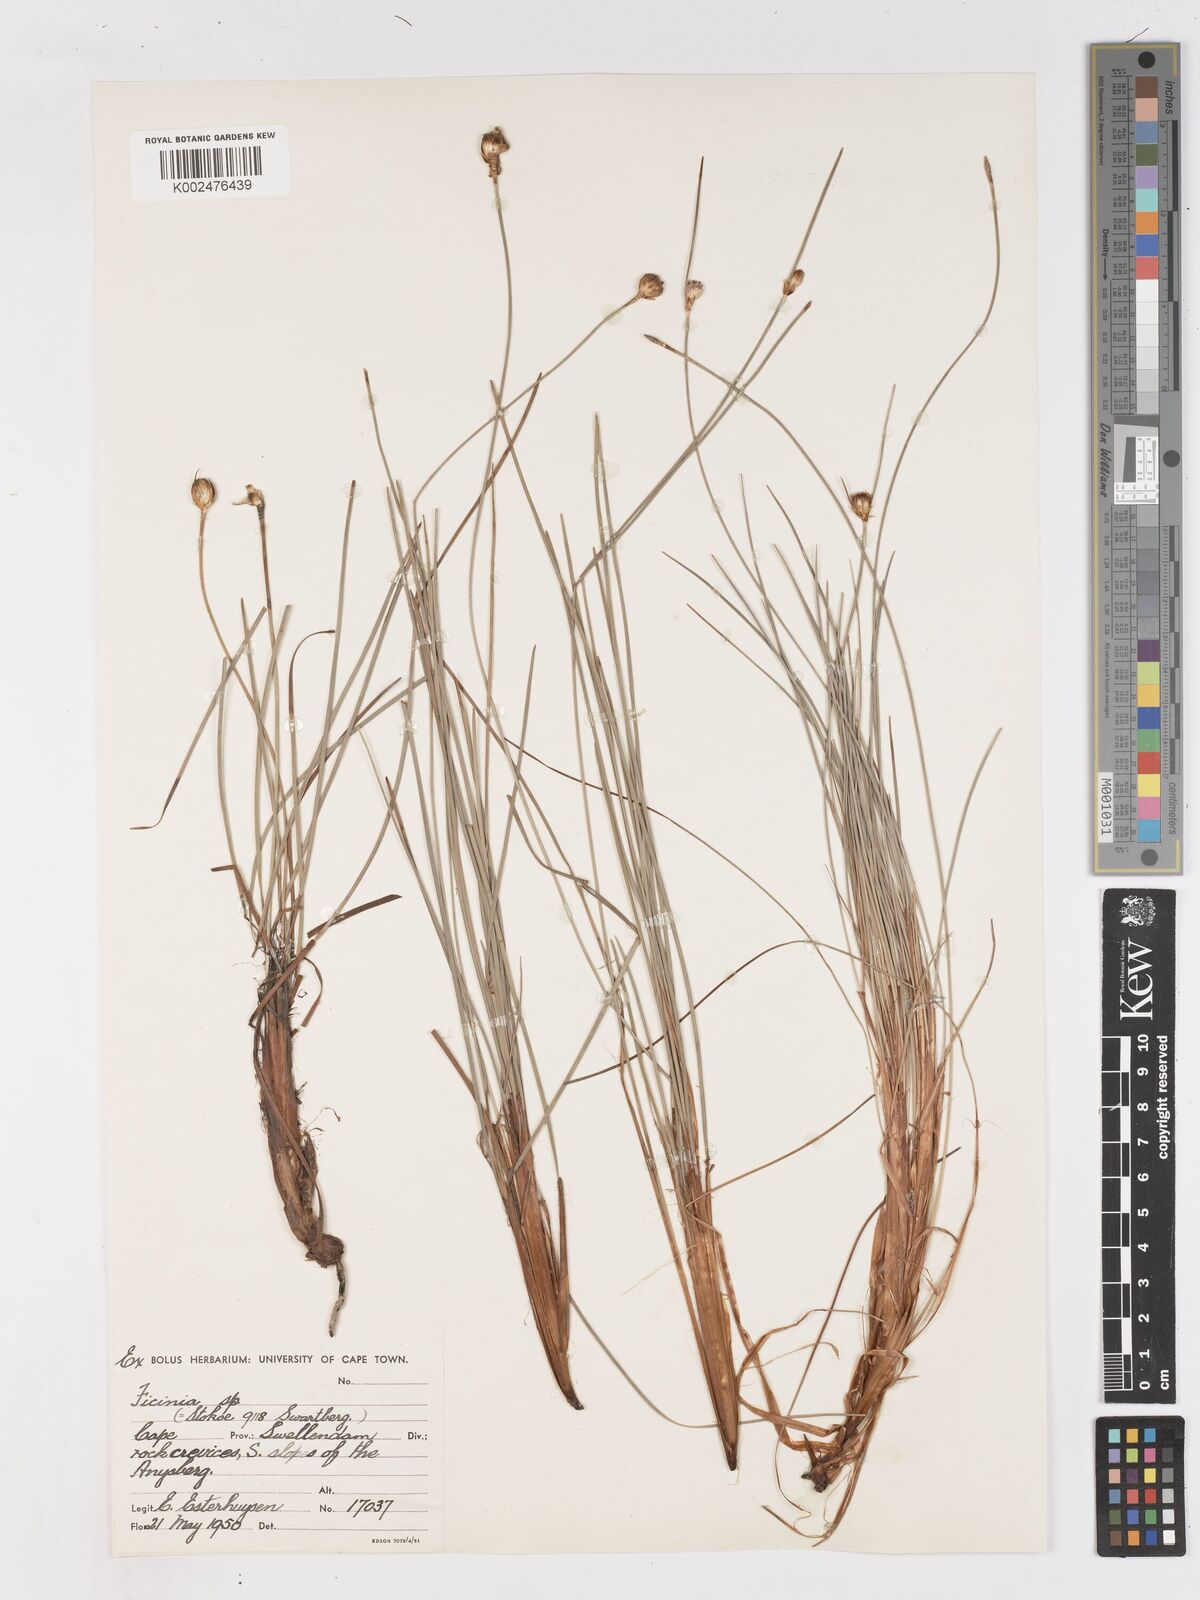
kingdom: Plantae
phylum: Tracheophyta
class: Liliopsida
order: Poales
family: Cyperaceae
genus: Ficinia
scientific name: Ficinia petrophylla
